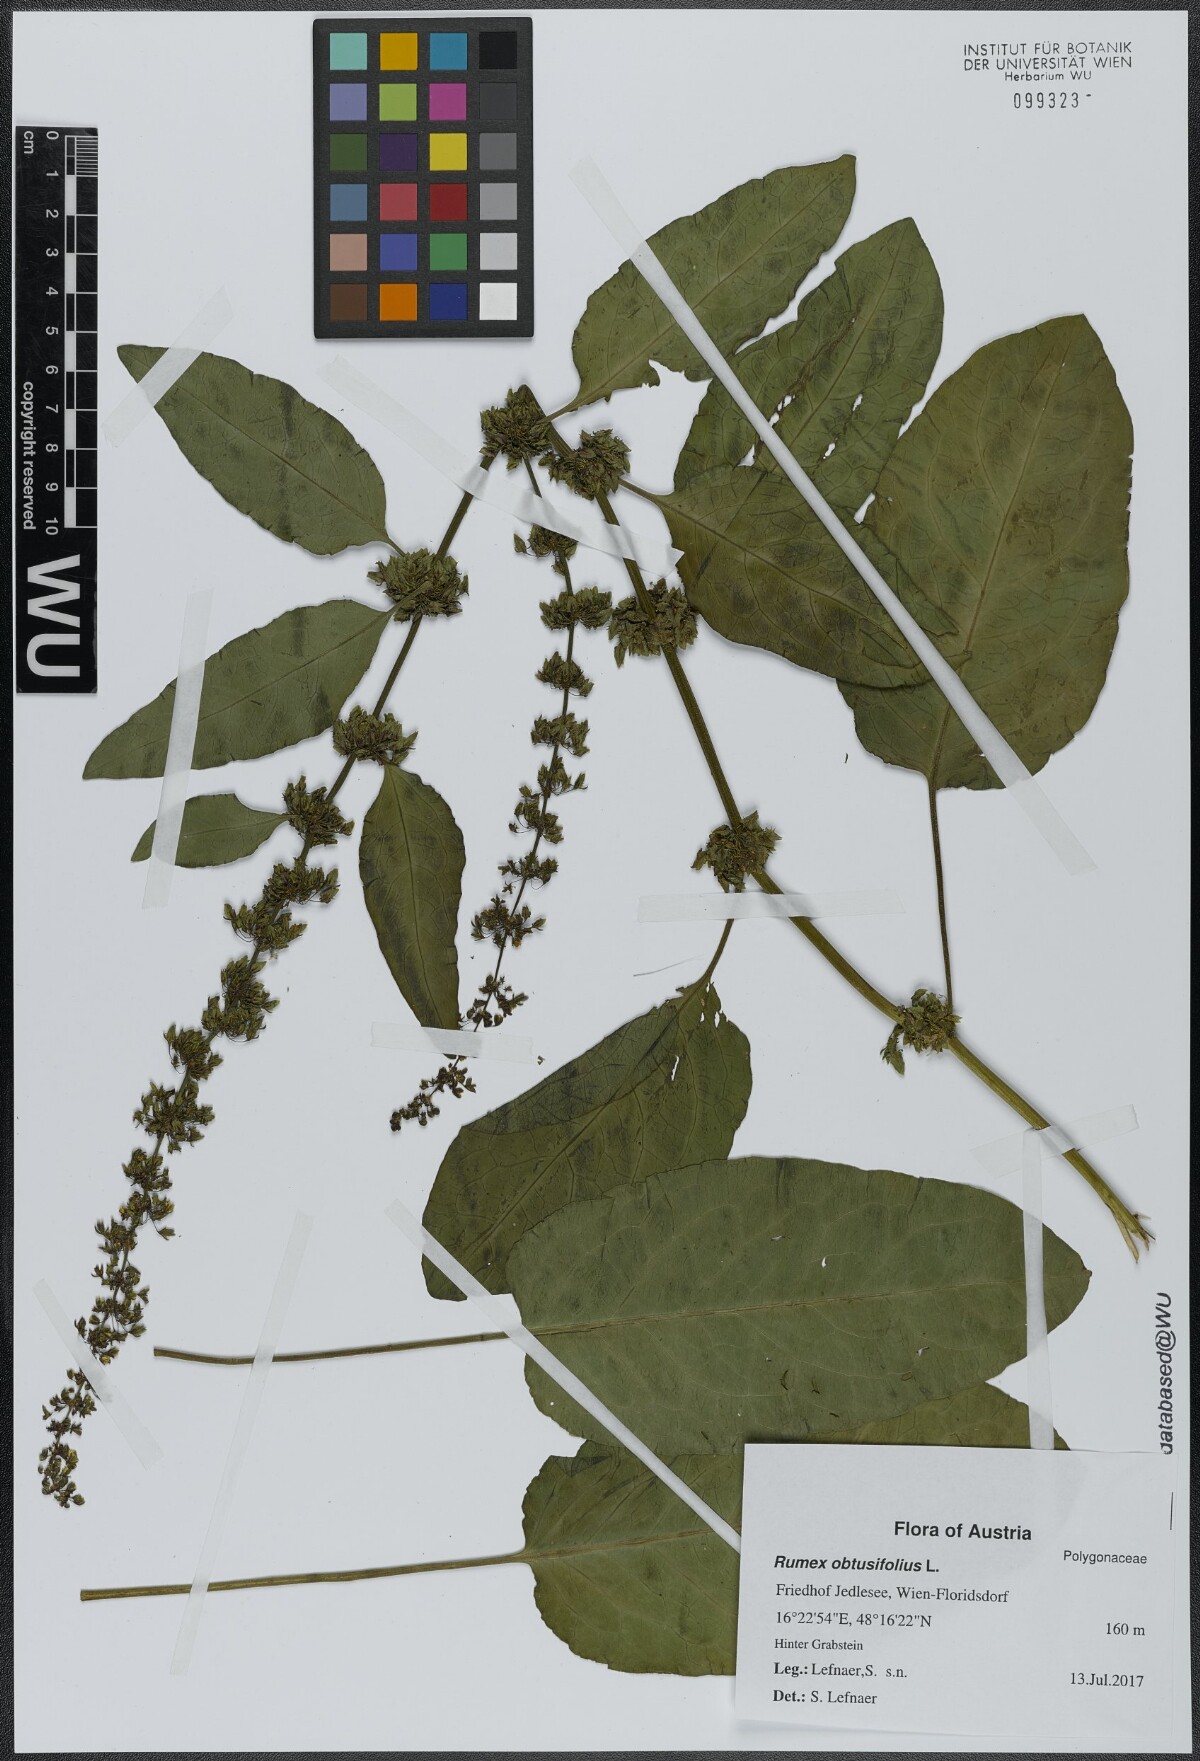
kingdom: Plantae
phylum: Tracheophyta
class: Magnoliopsida
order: Caryophyllales
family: Polygonaceae
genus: Rumex
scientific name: Rumex obtusifolius
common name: Bitter dock
